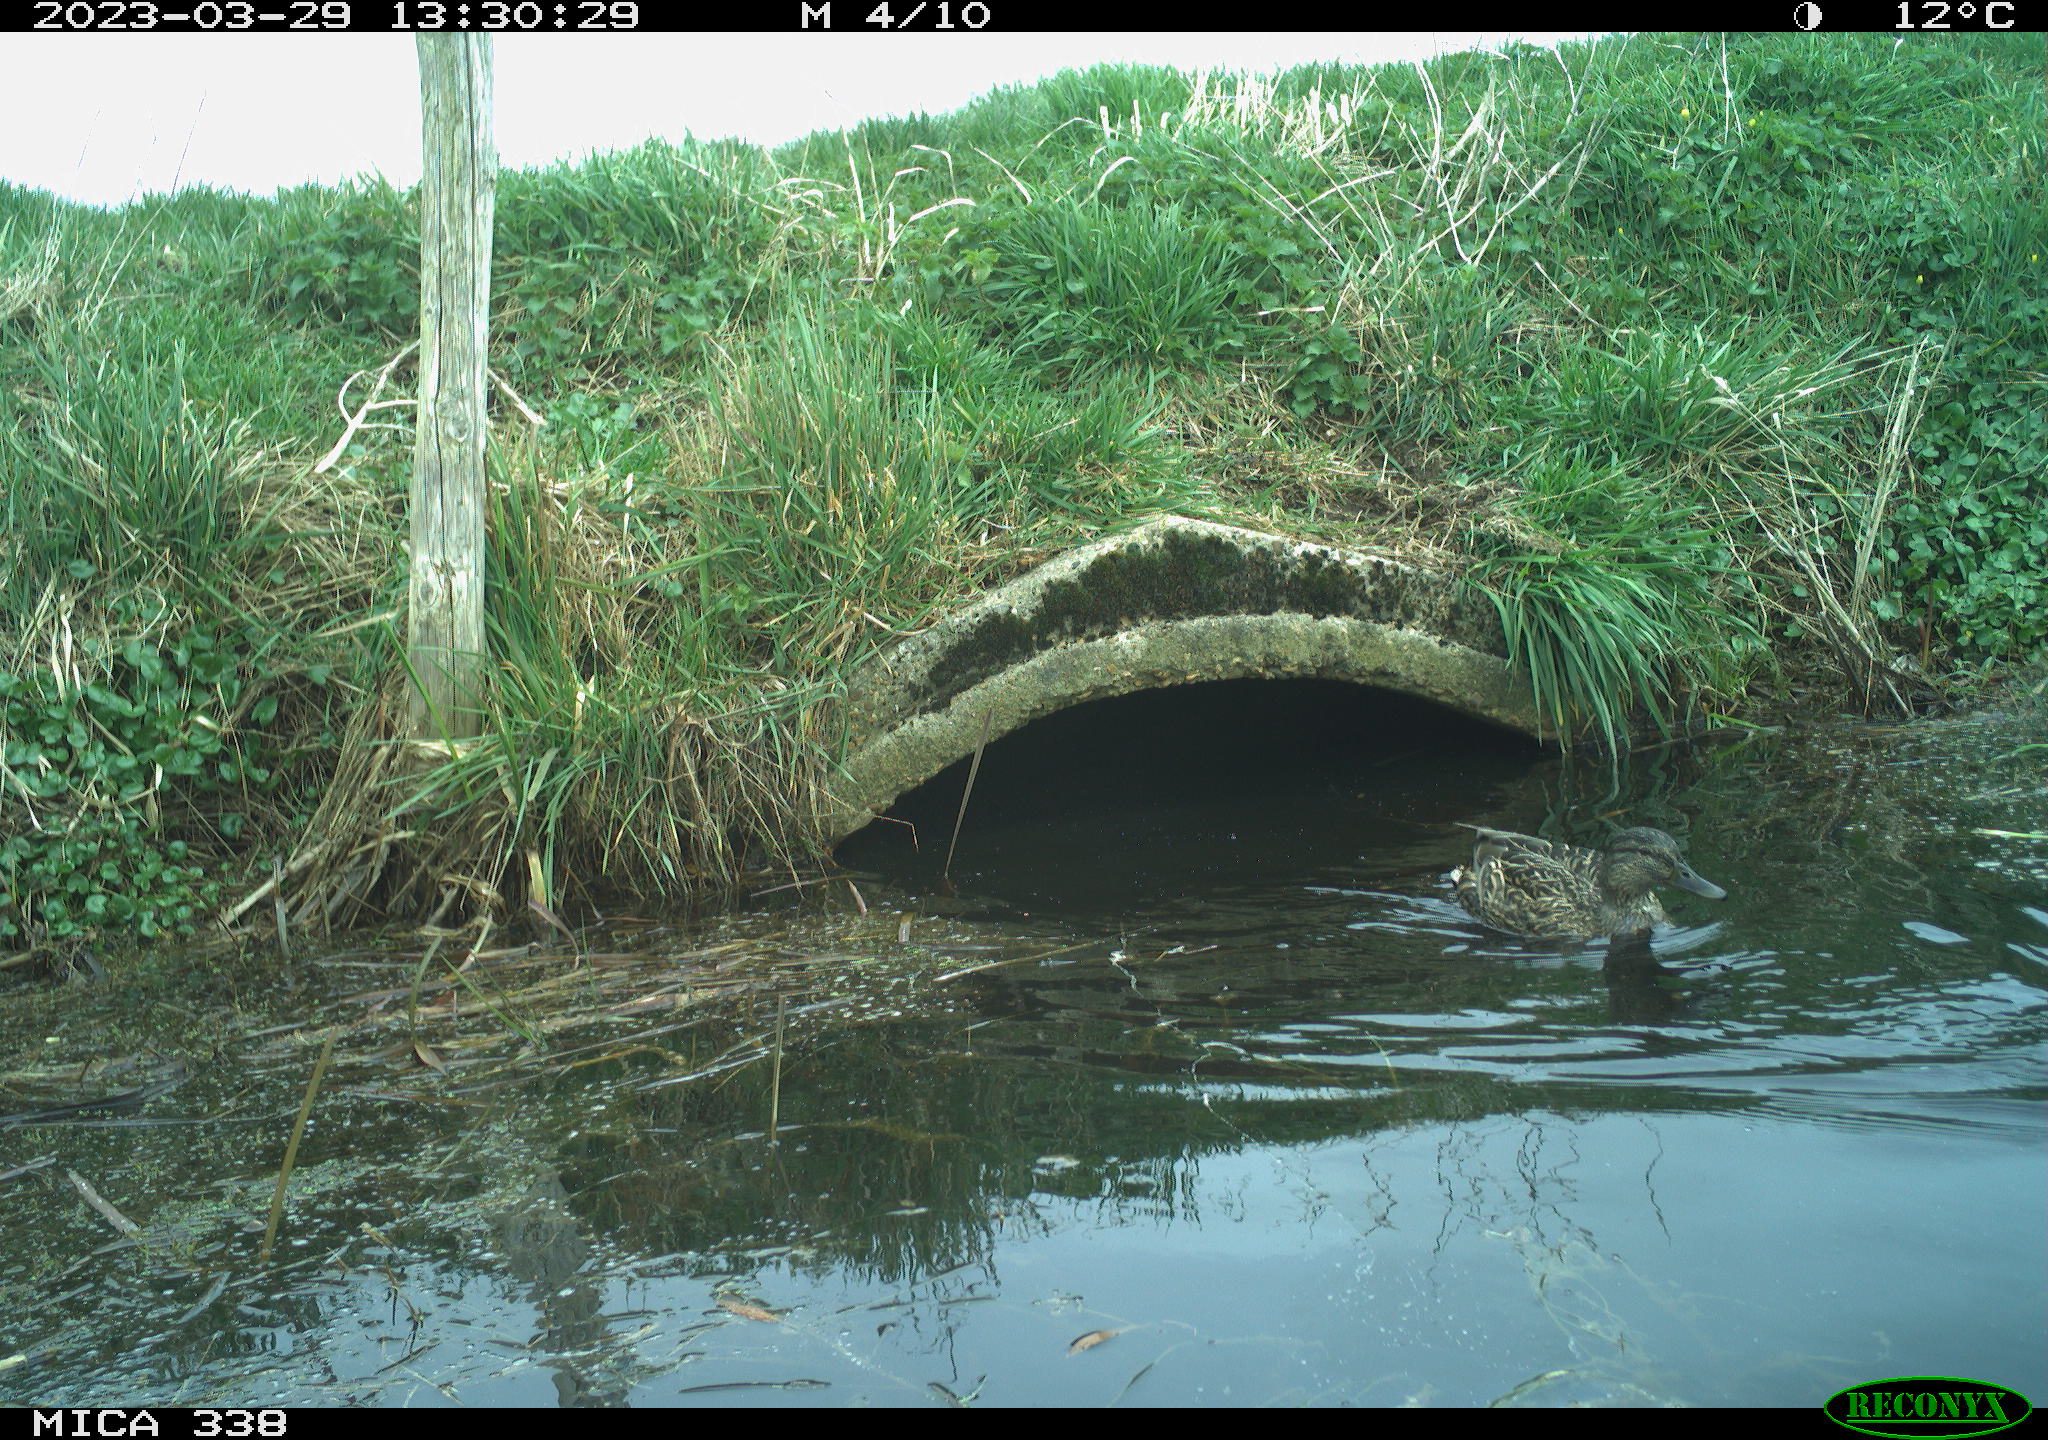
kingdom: Animalia
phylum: Chordata
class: Aves
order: Anseriformes
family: Anatidae
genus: Anas
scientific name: Anas platyrhynchos
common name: Mallard
